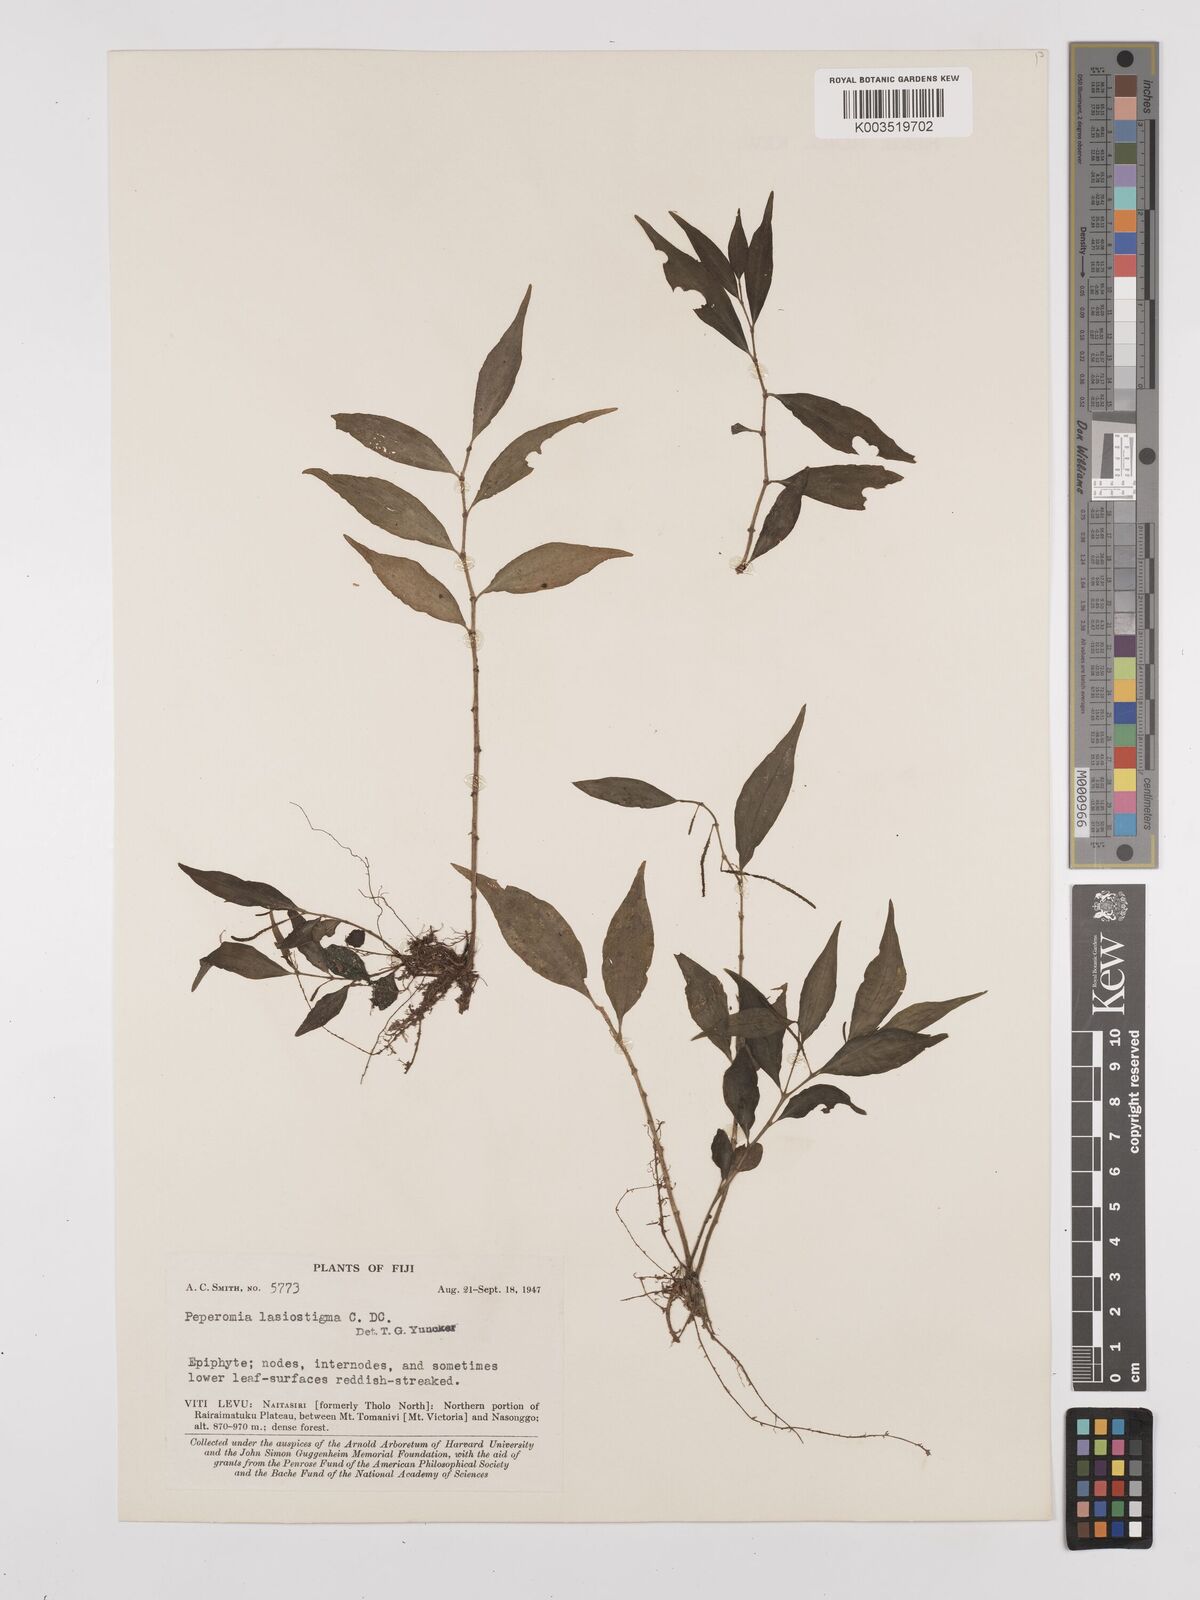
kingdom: Plantae
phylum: Tracheophyta
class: Magnoliopsida
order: Piperales
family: Piperaceae
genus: Peperomia
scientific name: Peperomia lasiostigma
